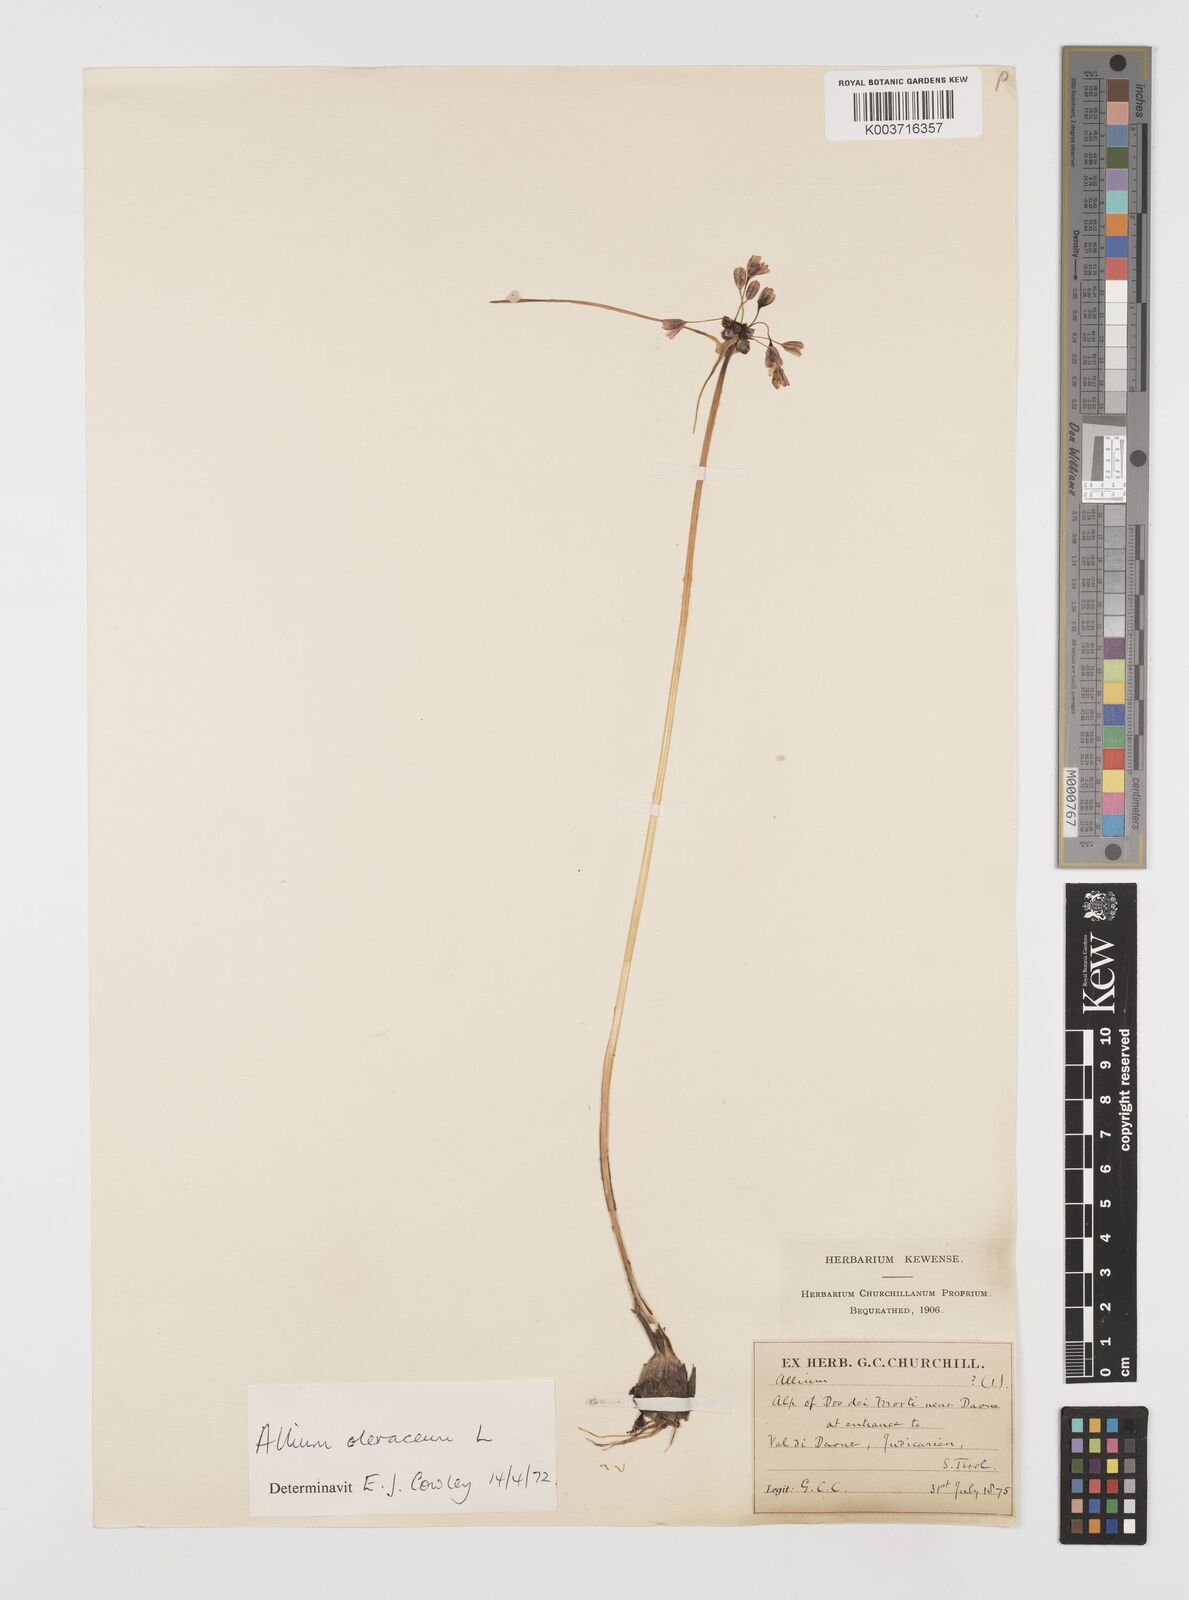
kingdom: Plantae
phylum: Tracheophyta
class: Liliopsida
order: Asparagales
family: Amaryllidaceae
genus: Allium
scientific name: Allium oleraceum
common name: Field garlic
